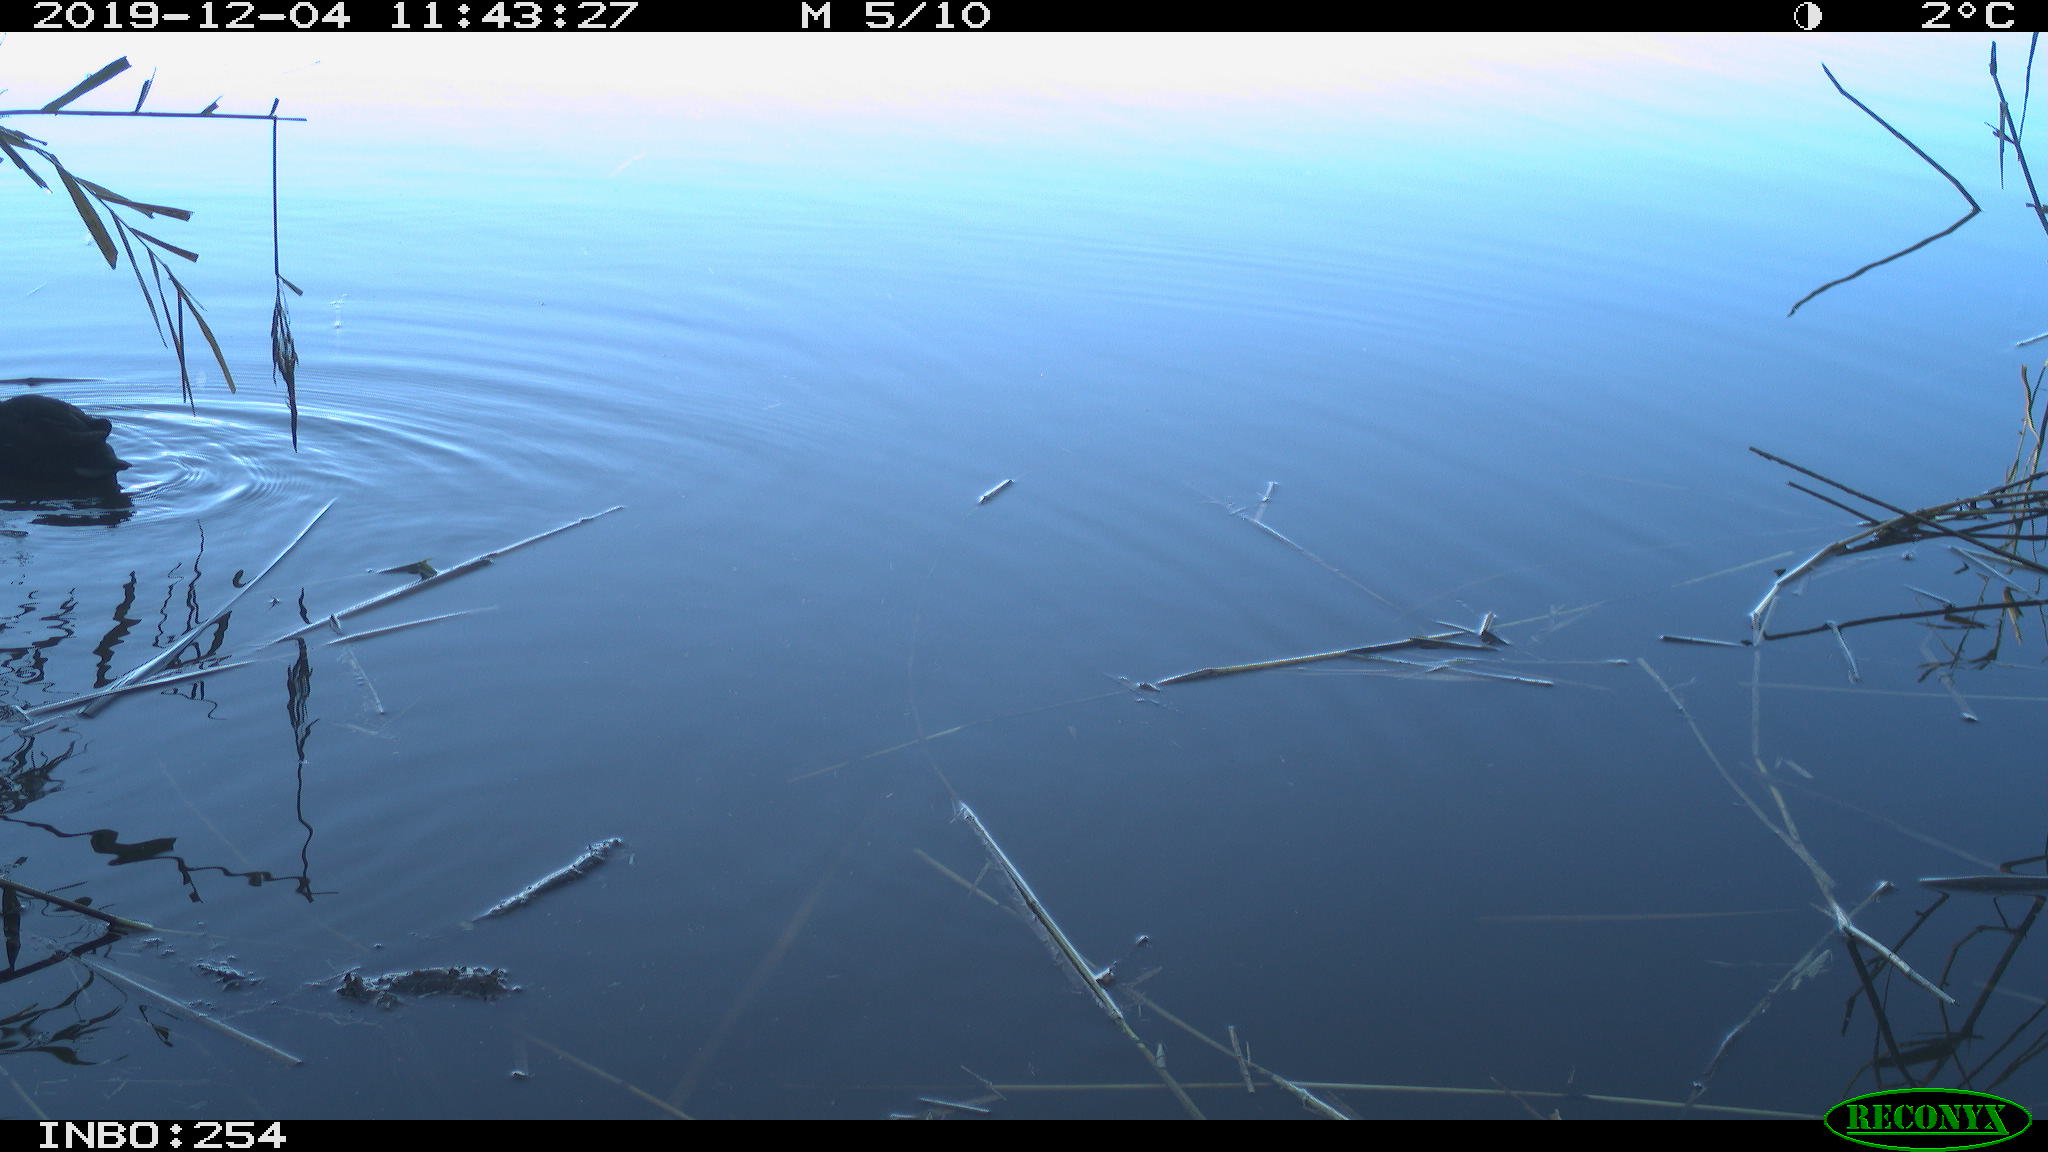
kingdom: Animalia
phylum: Chordata
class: Aves
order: Gruiformes
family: Rallidae
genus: Gallinula
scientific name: Gallinula chloropus
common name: Common moorhen
